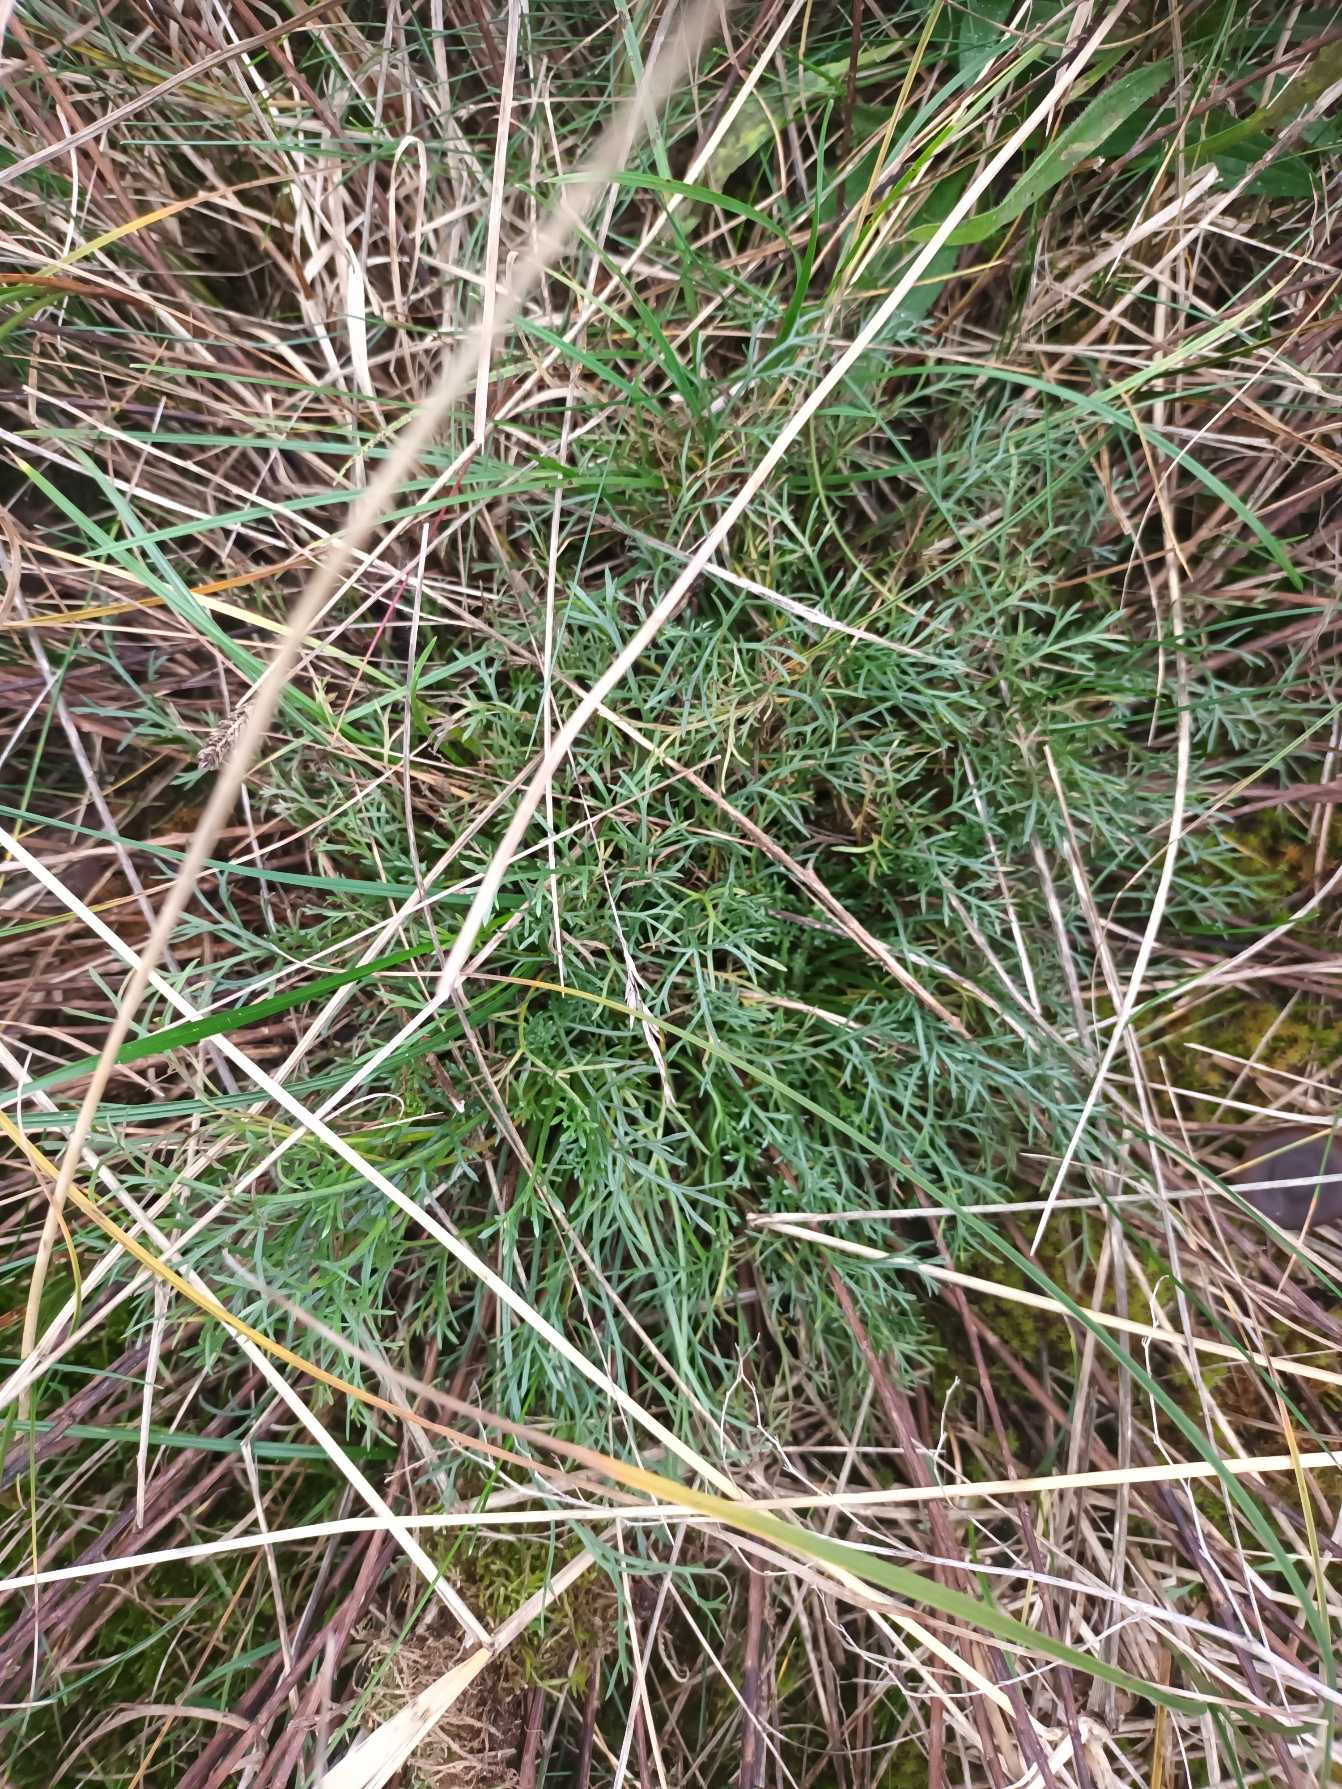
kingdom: Plantae
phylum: Tracheophyta
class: Magnoliopsida
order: Asterales
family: Asteraceae
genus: Artemisia
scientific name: Artemisia campestris
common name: Mark-bynke
